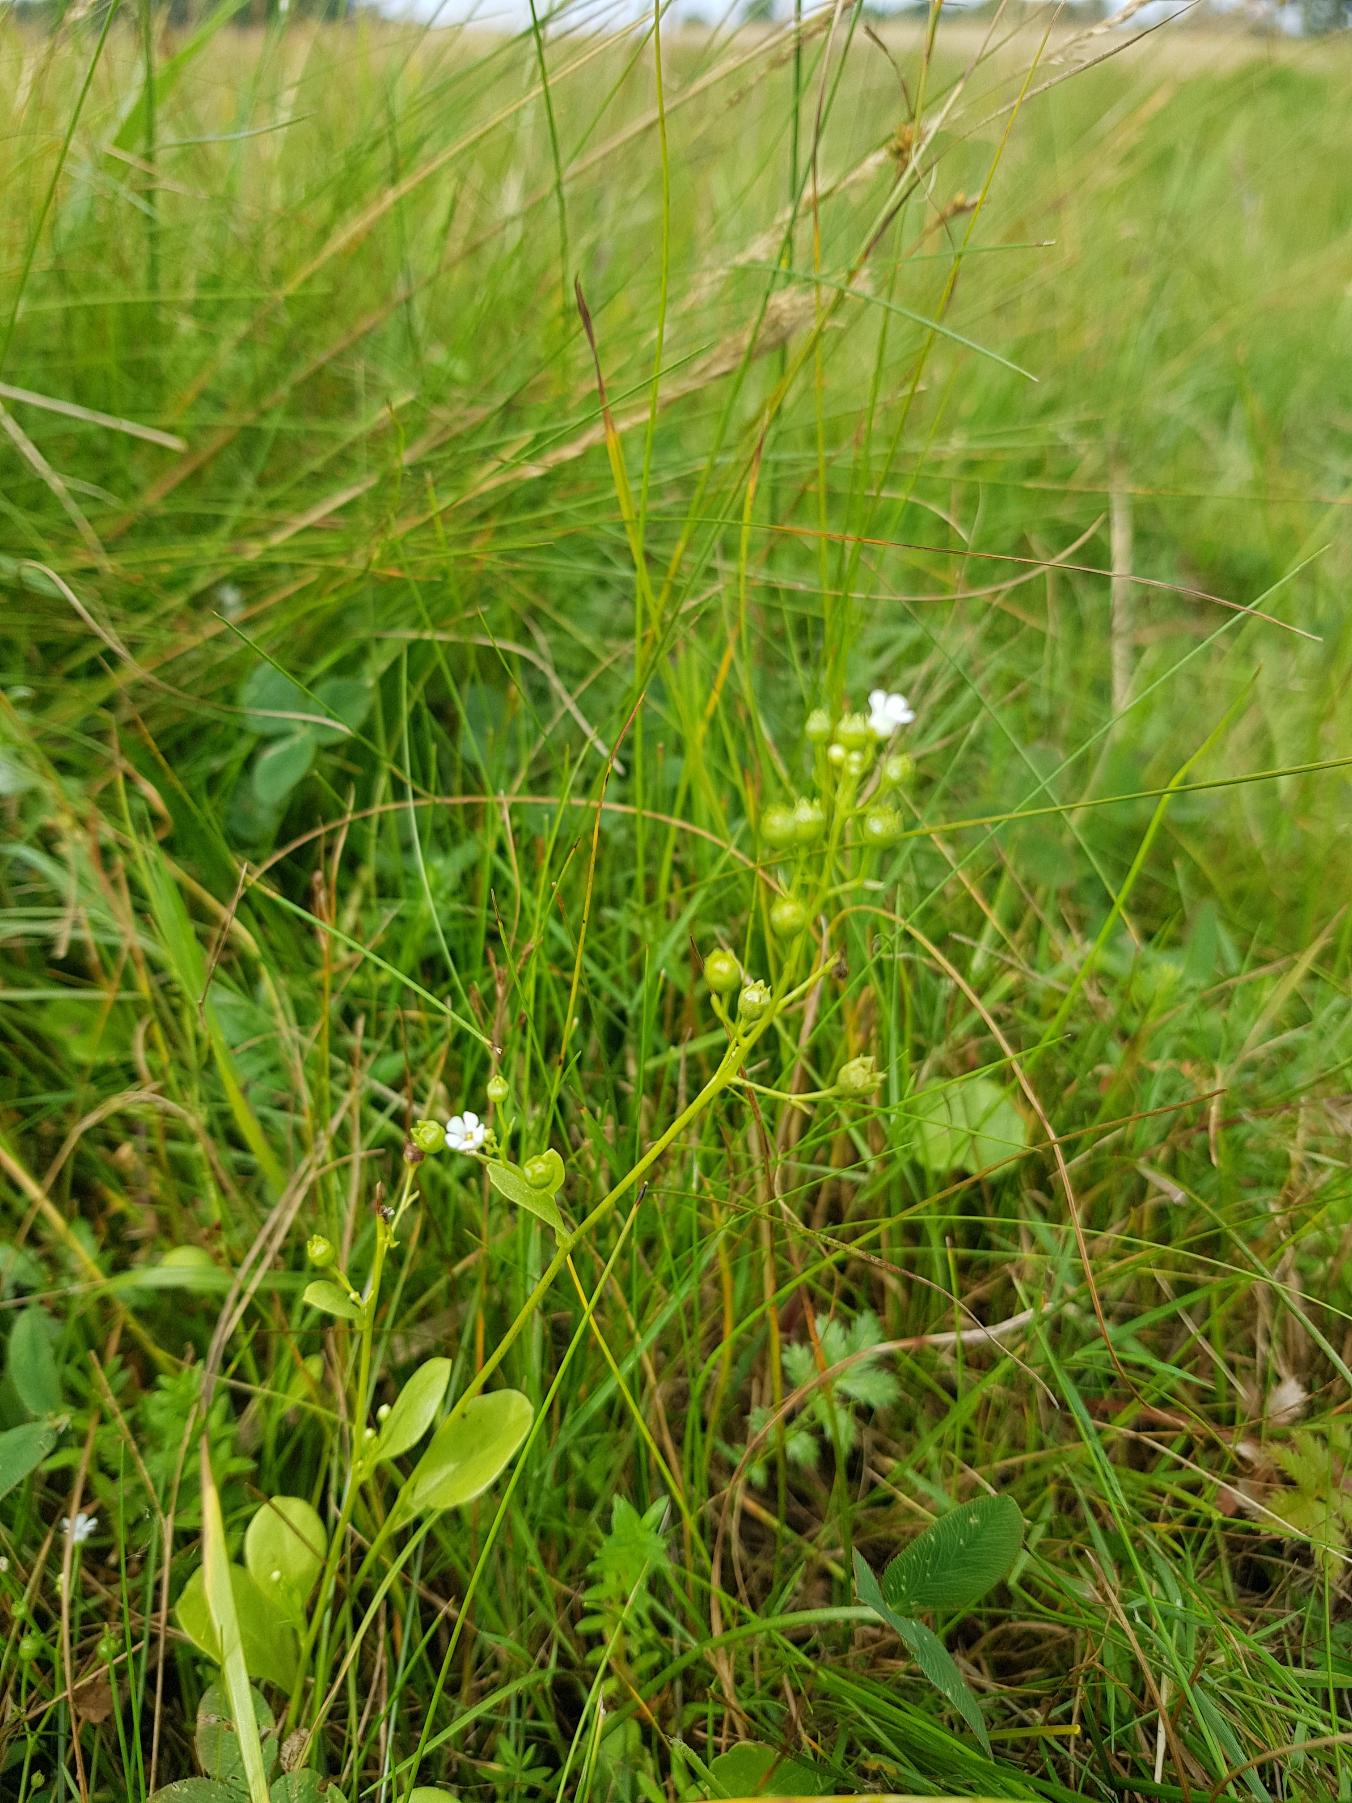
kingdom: Plantae
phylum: Tracheophyta
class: Magnoliopsida
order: Ericales
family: Primulaceae
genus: Samolus
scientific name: Samolus valerandi
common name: Samel
